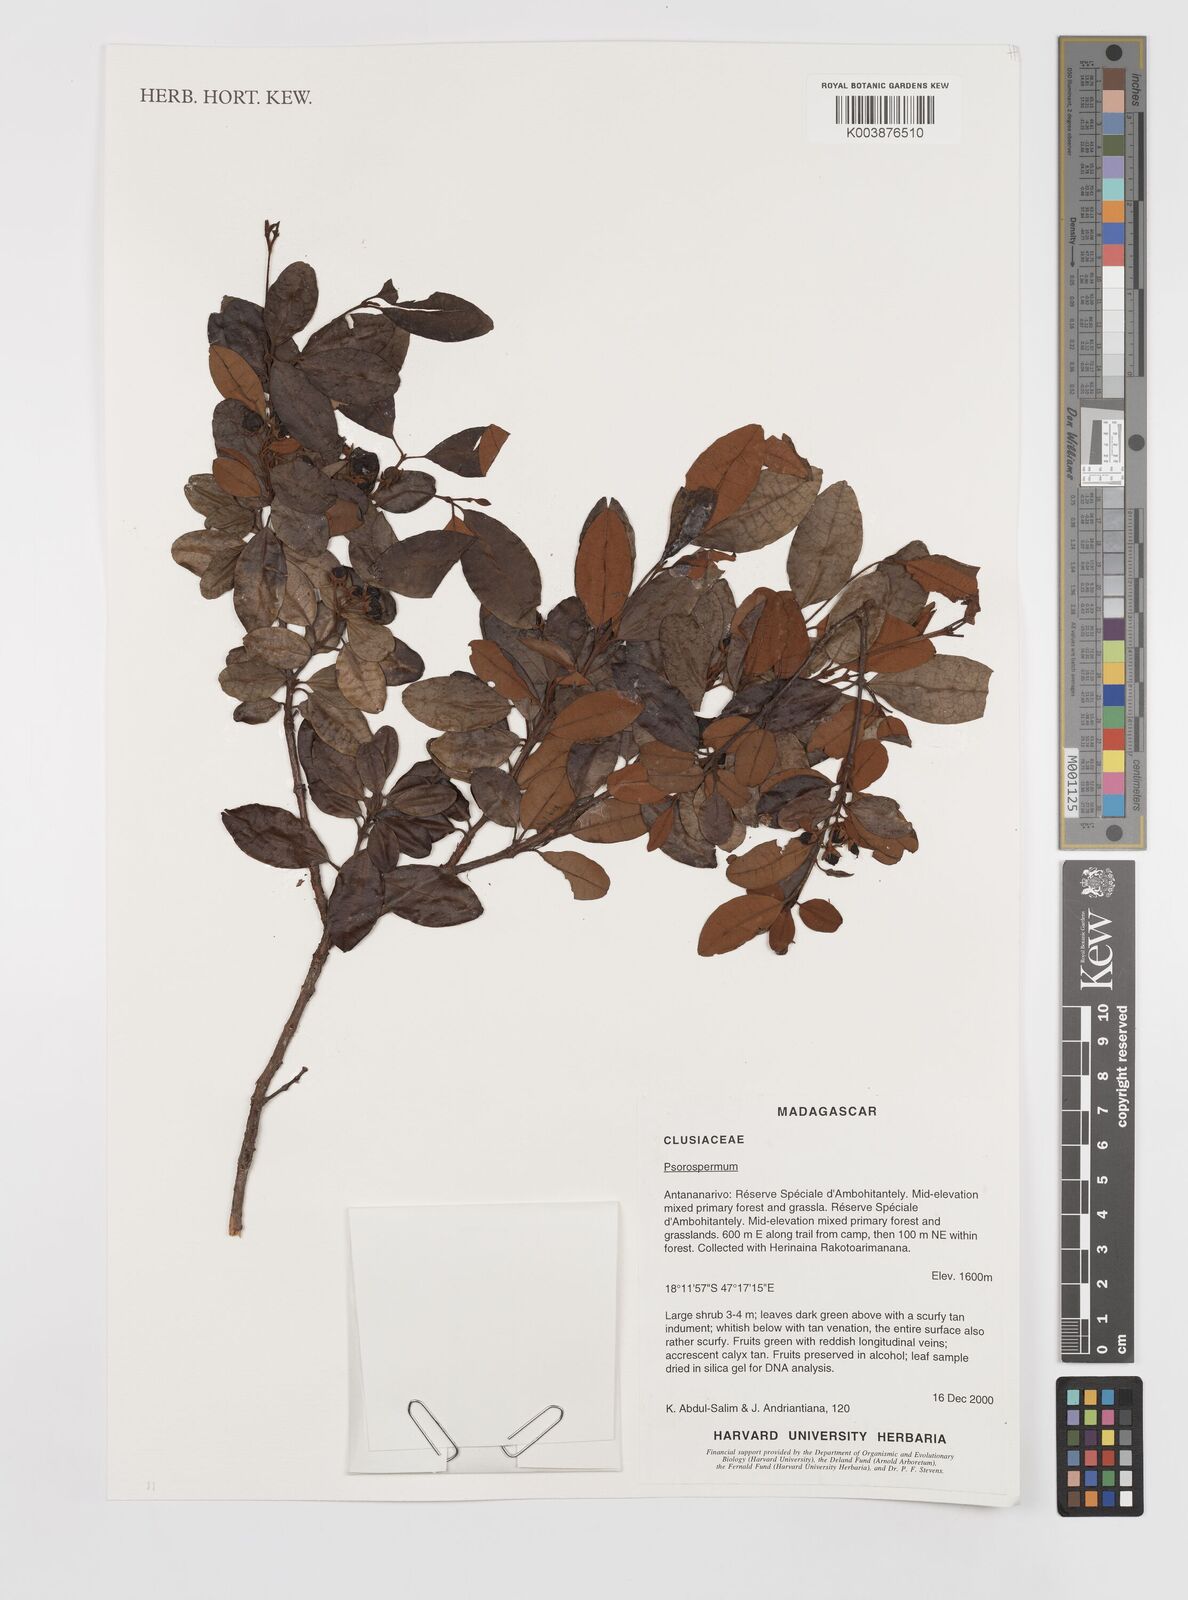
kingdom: Plantae
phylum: Tracheophyta
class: Magnoliopsida
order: Malpighiales
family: Hypericaceae
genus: Psorospermum
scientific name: Psorospermum
